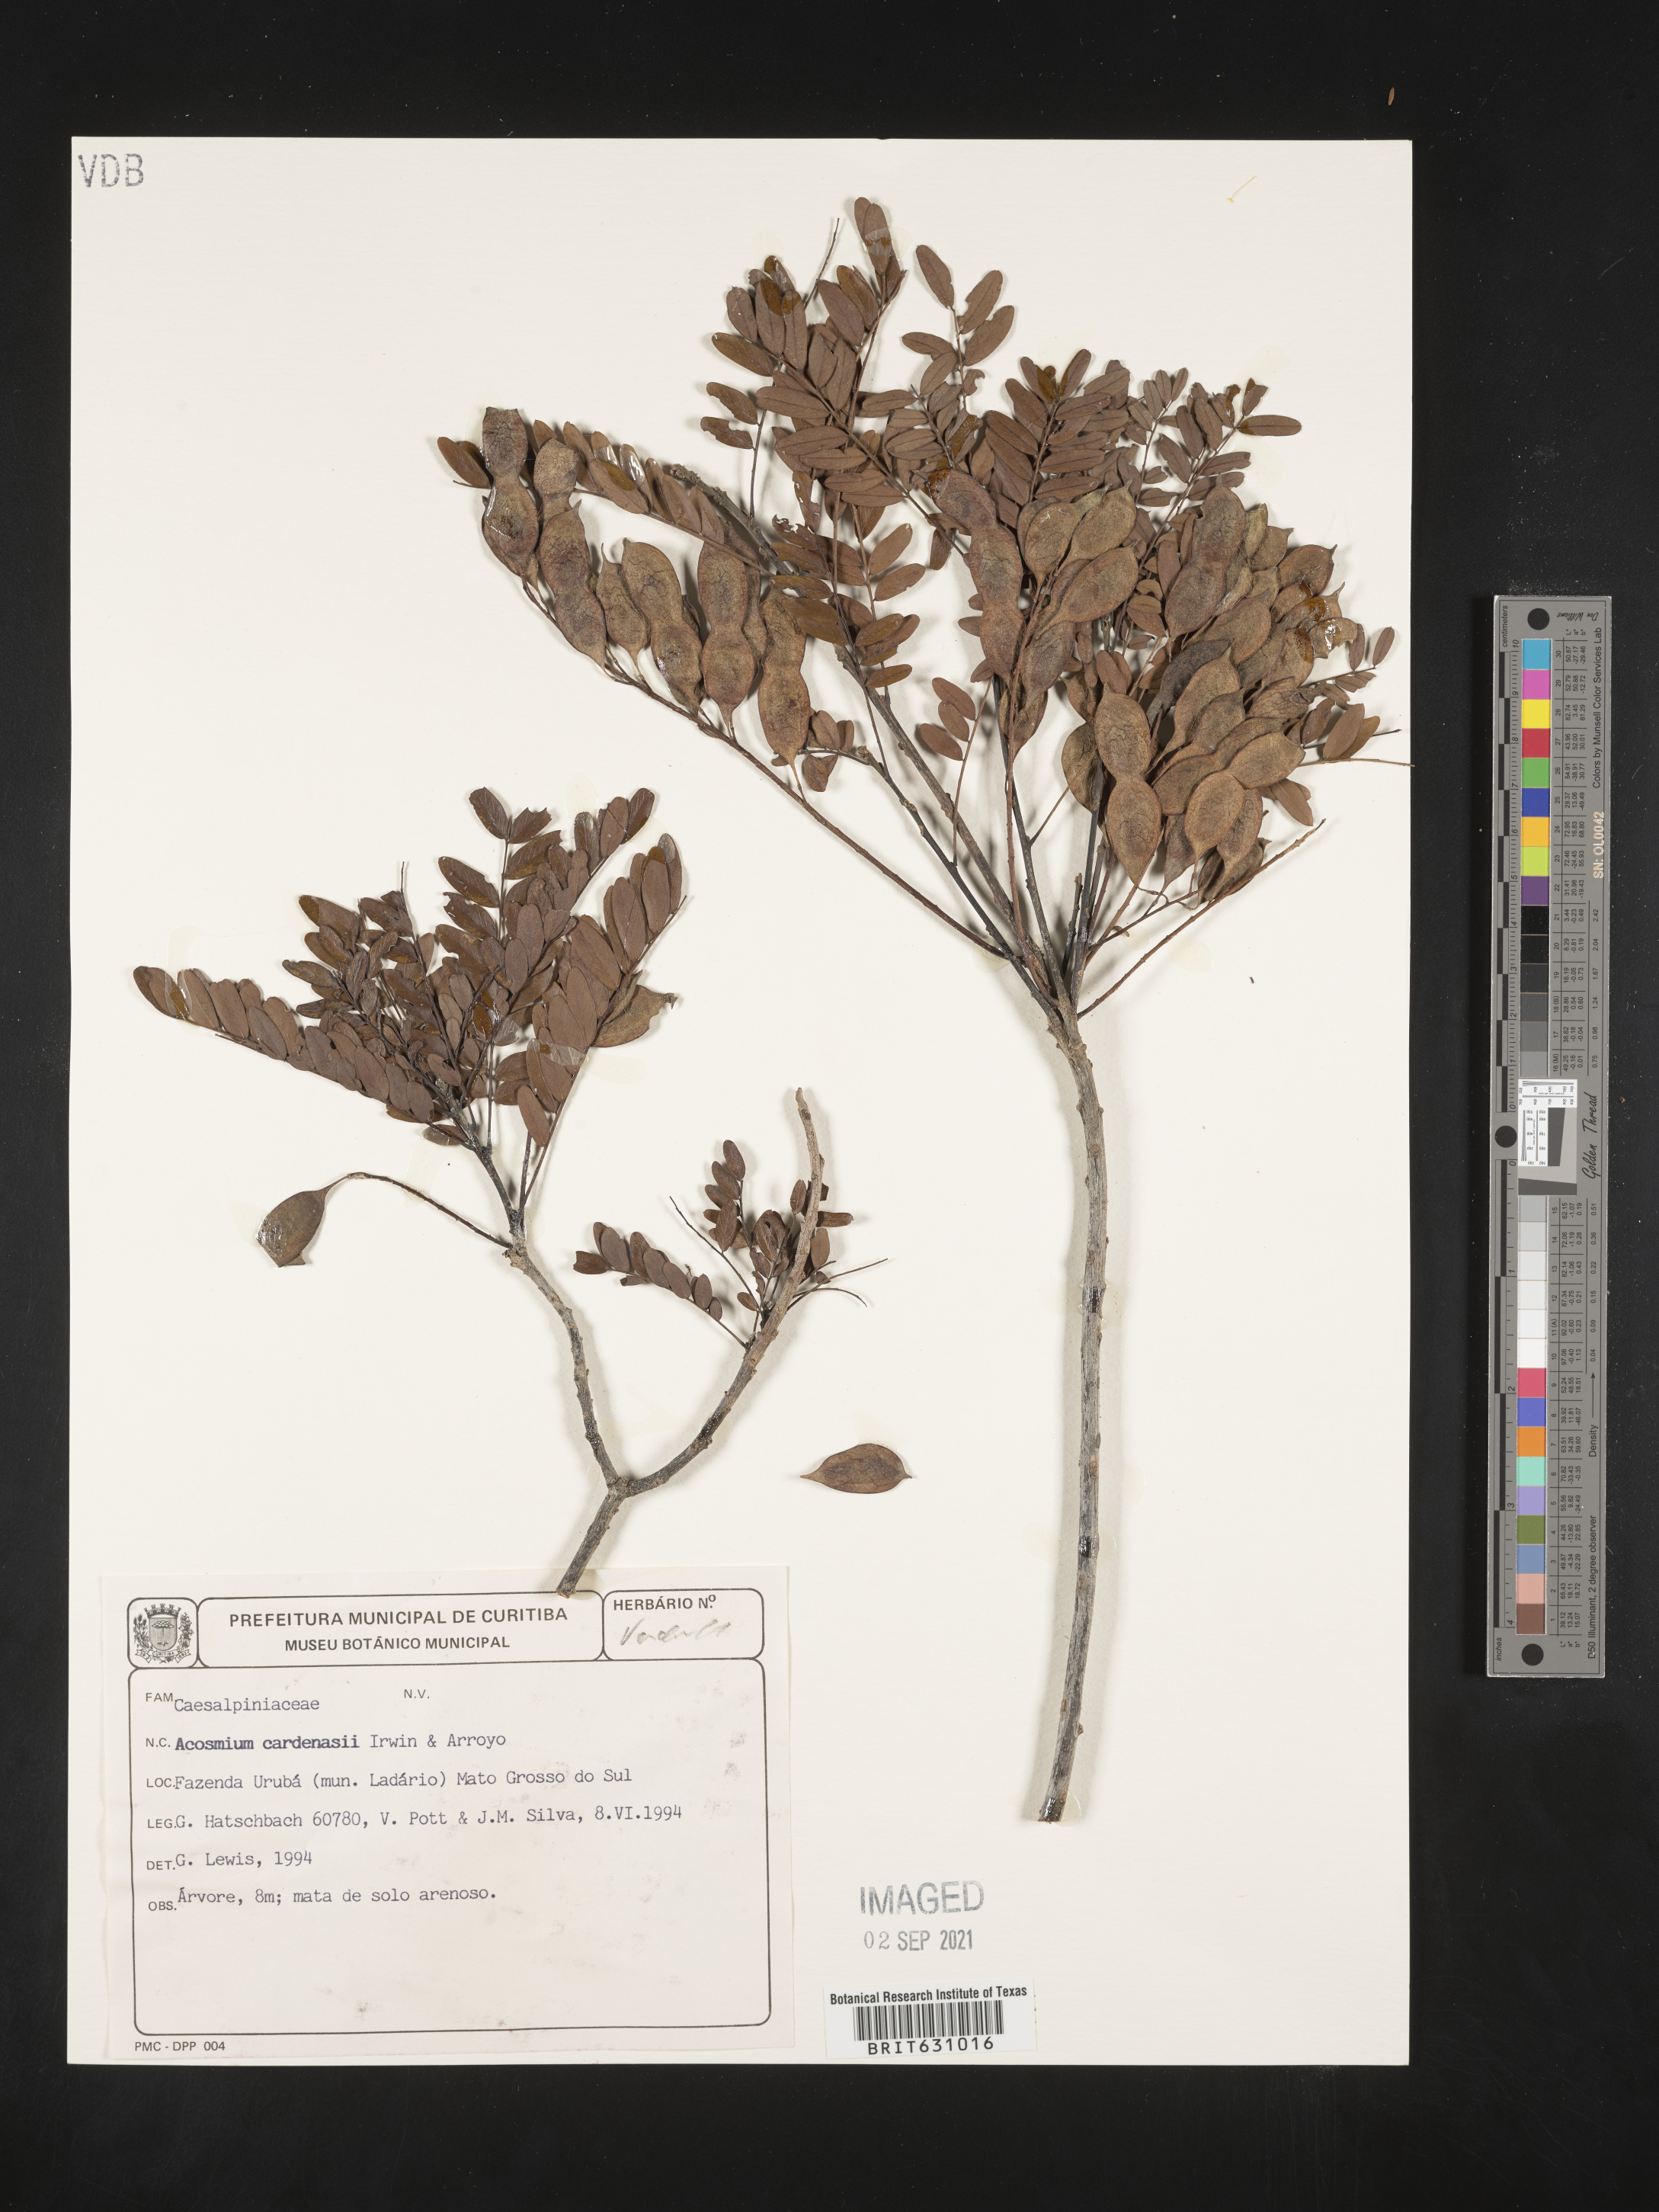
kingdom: Plantae
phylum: Tracheophyta
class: Magnoliopsida
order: Fabales
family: Fabaceae
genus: Acosmium
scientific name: Acosmium
